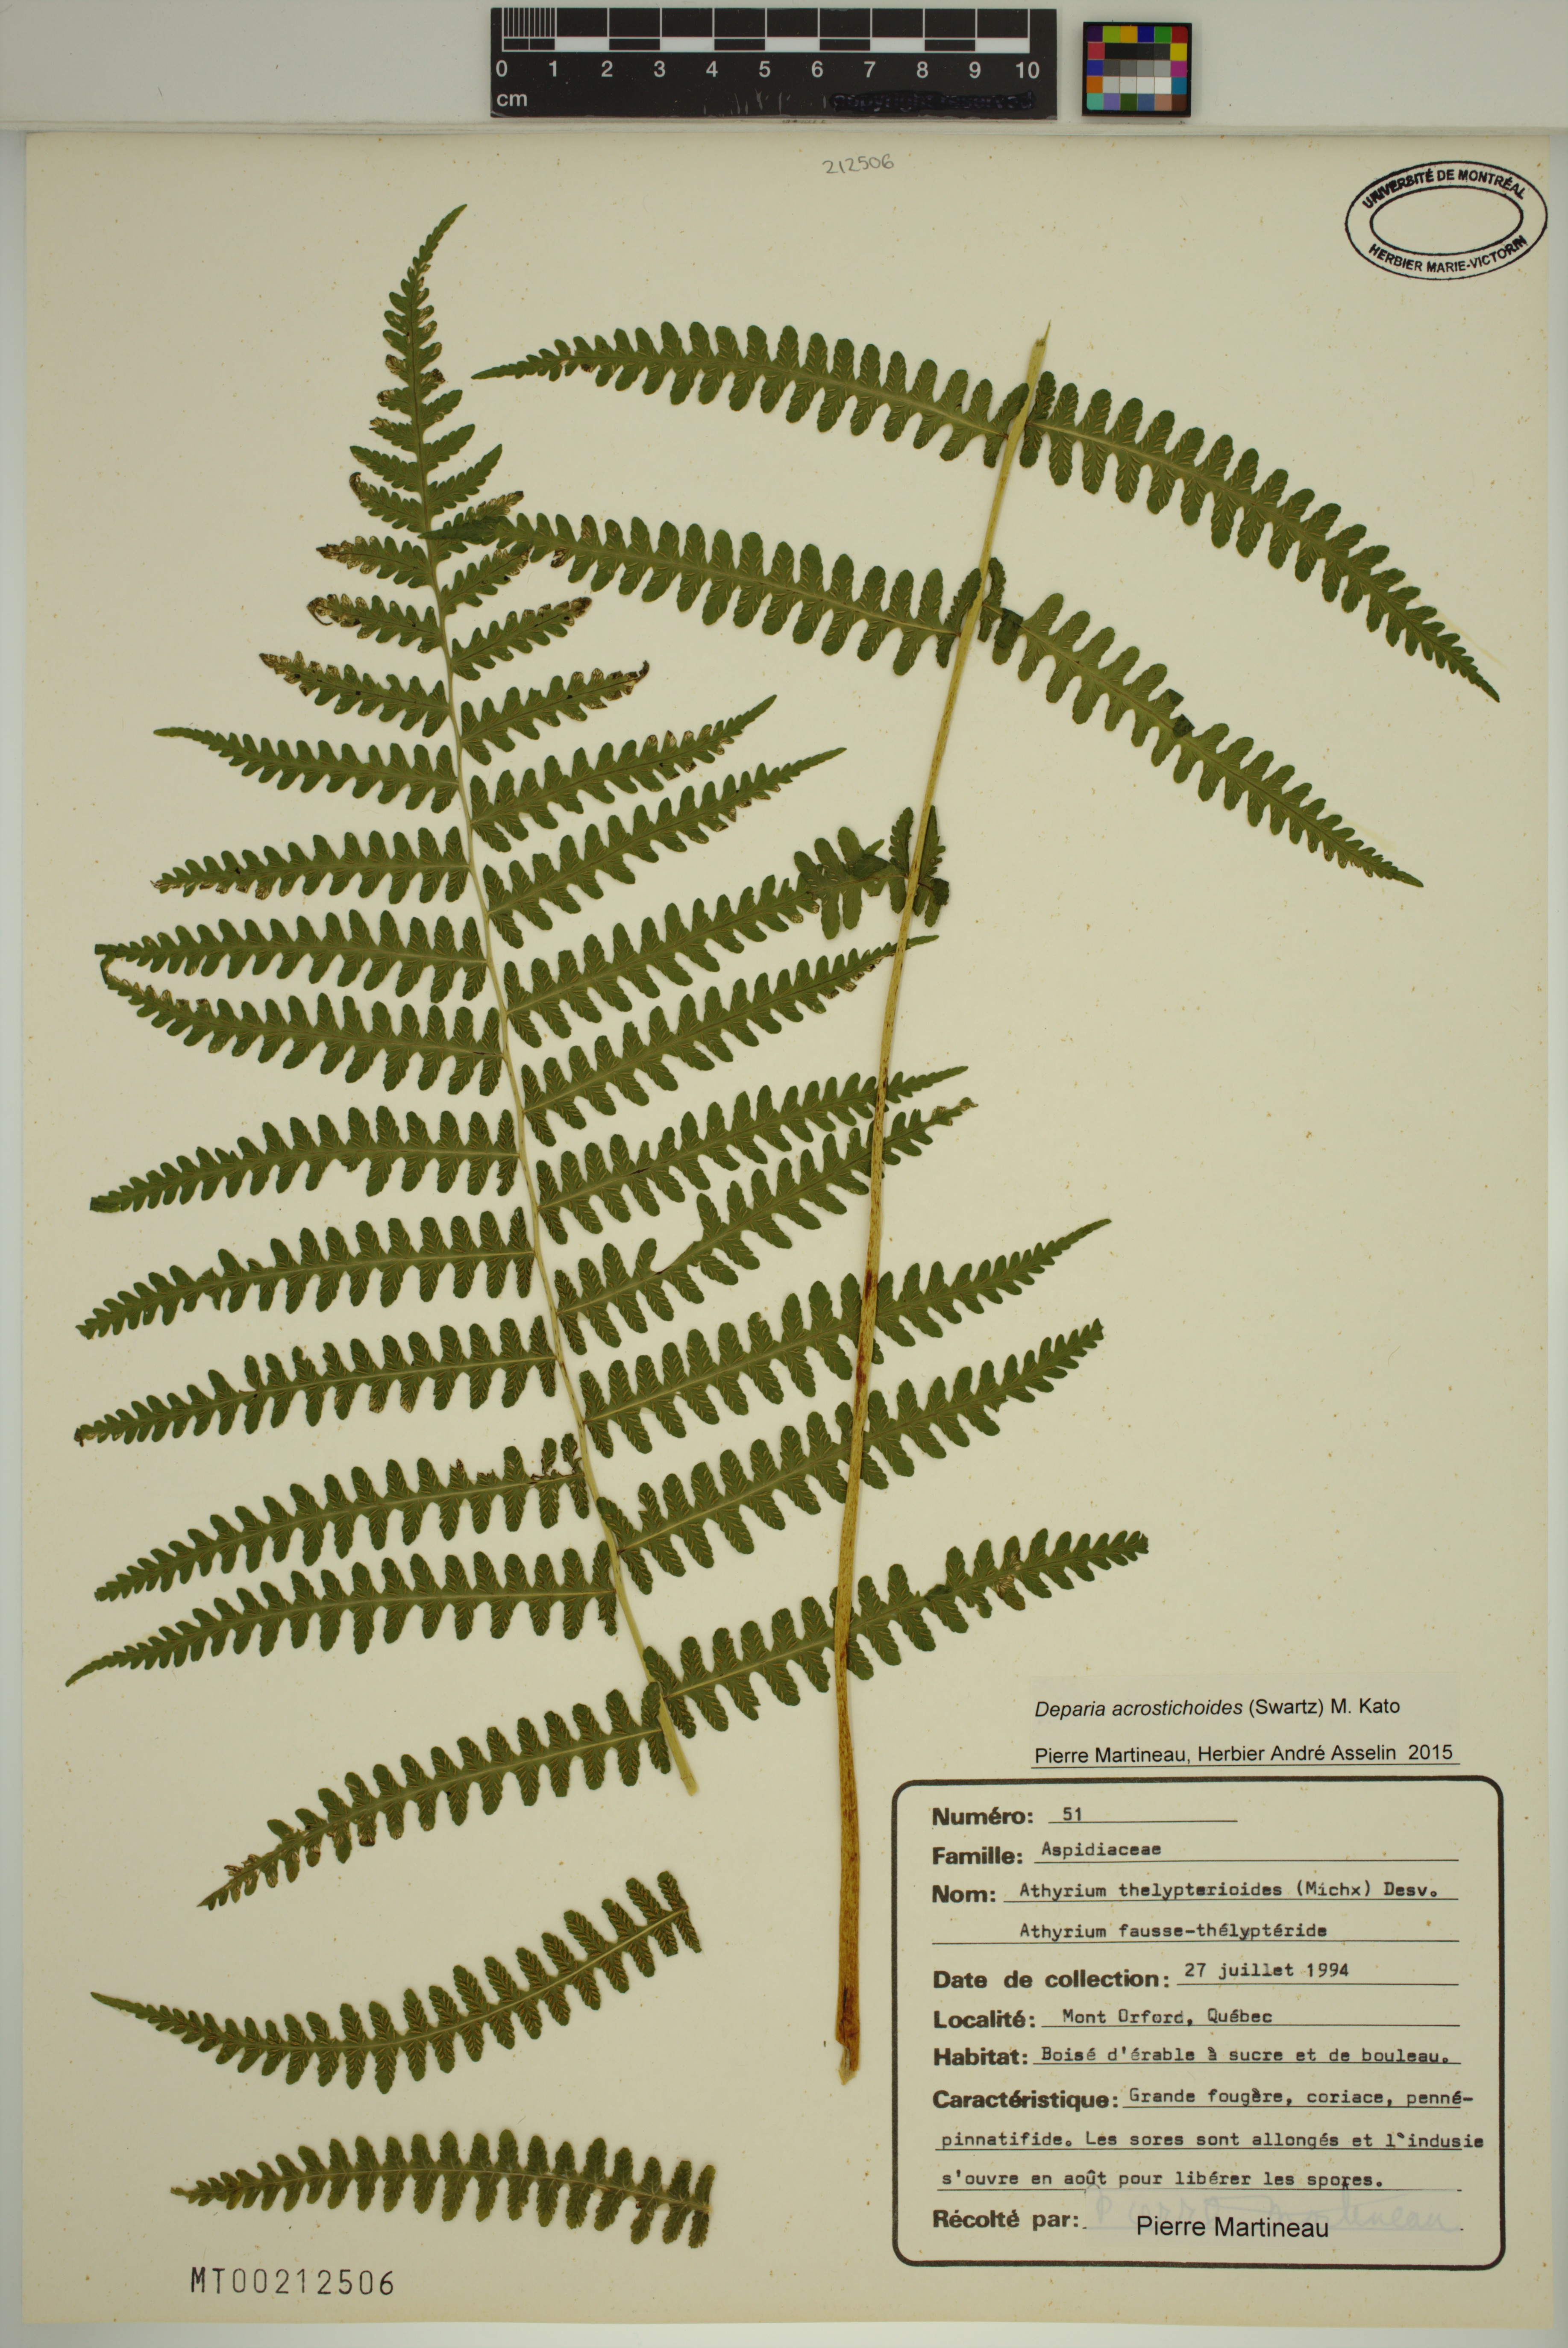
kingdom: Plantae
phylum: Tracheophyta
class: Polypodiopsida
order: Polypodiales
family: Athyriaceae
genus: Deparia
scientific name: Deparia acrostichoides
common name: Silver false spleenwort
